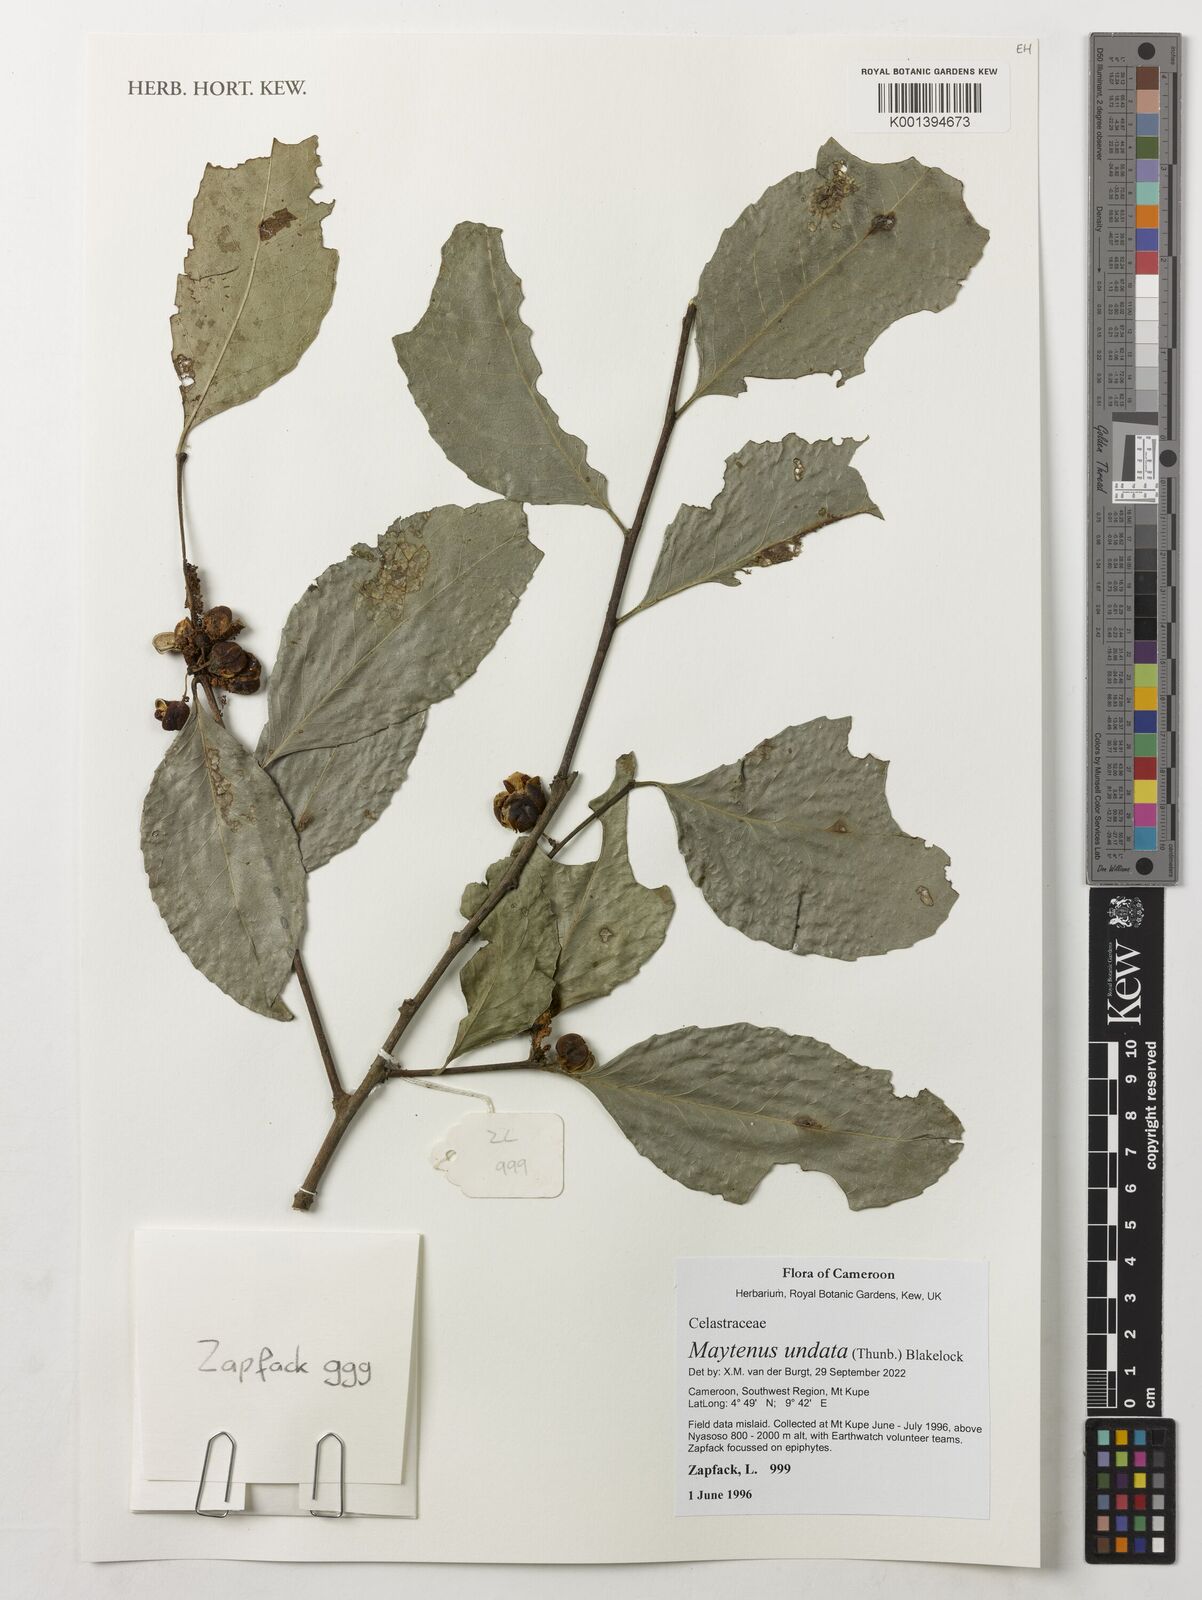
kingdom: Plantae
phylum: Tracheophyta
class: Magnoliopsida
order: Celastrales
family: Celastraceae
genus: Gymnosporia
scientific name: Gymnosporia undata
